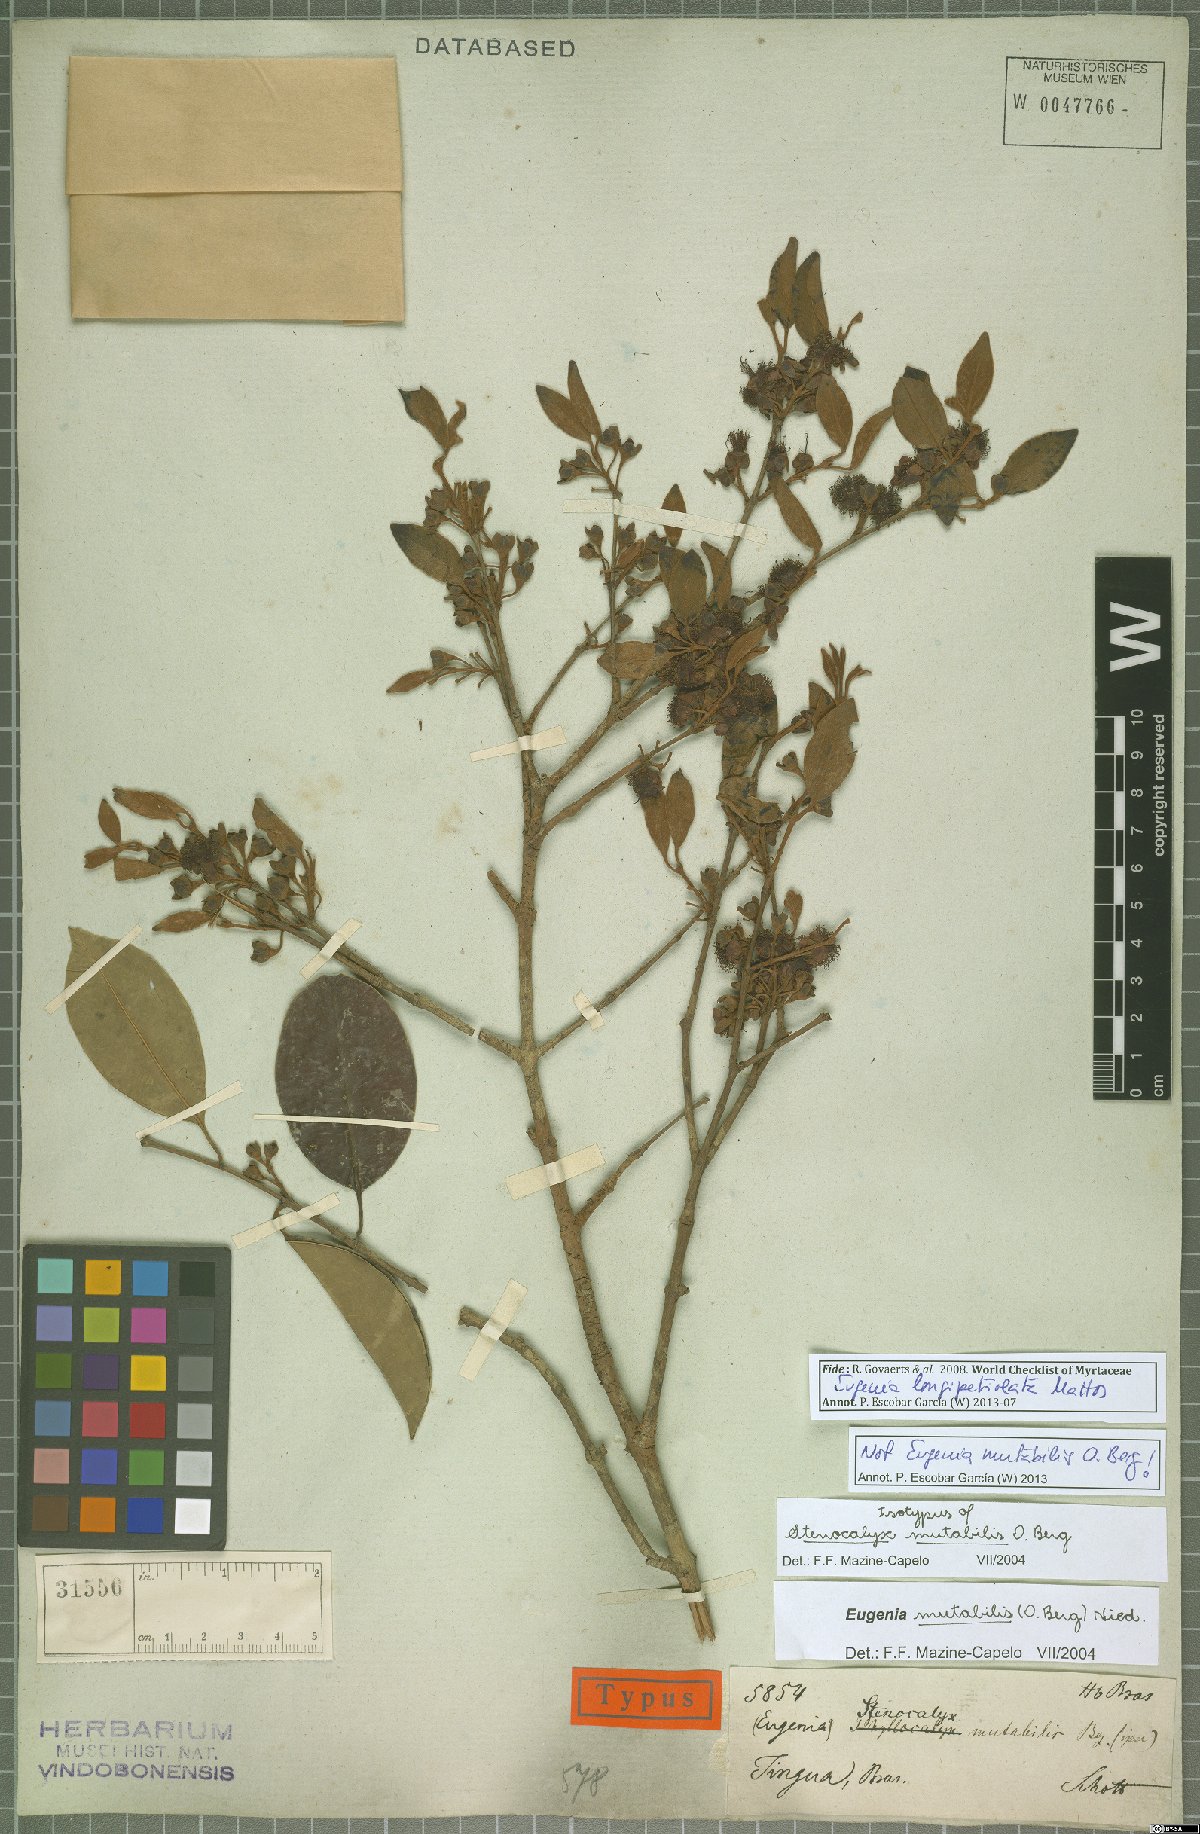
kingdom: Plantae
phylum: Tracheophyta
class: Magnoliopsida
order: Myrtales
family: Myrtaceae
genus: Eugenia
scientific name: Eugenia longipetiolata
